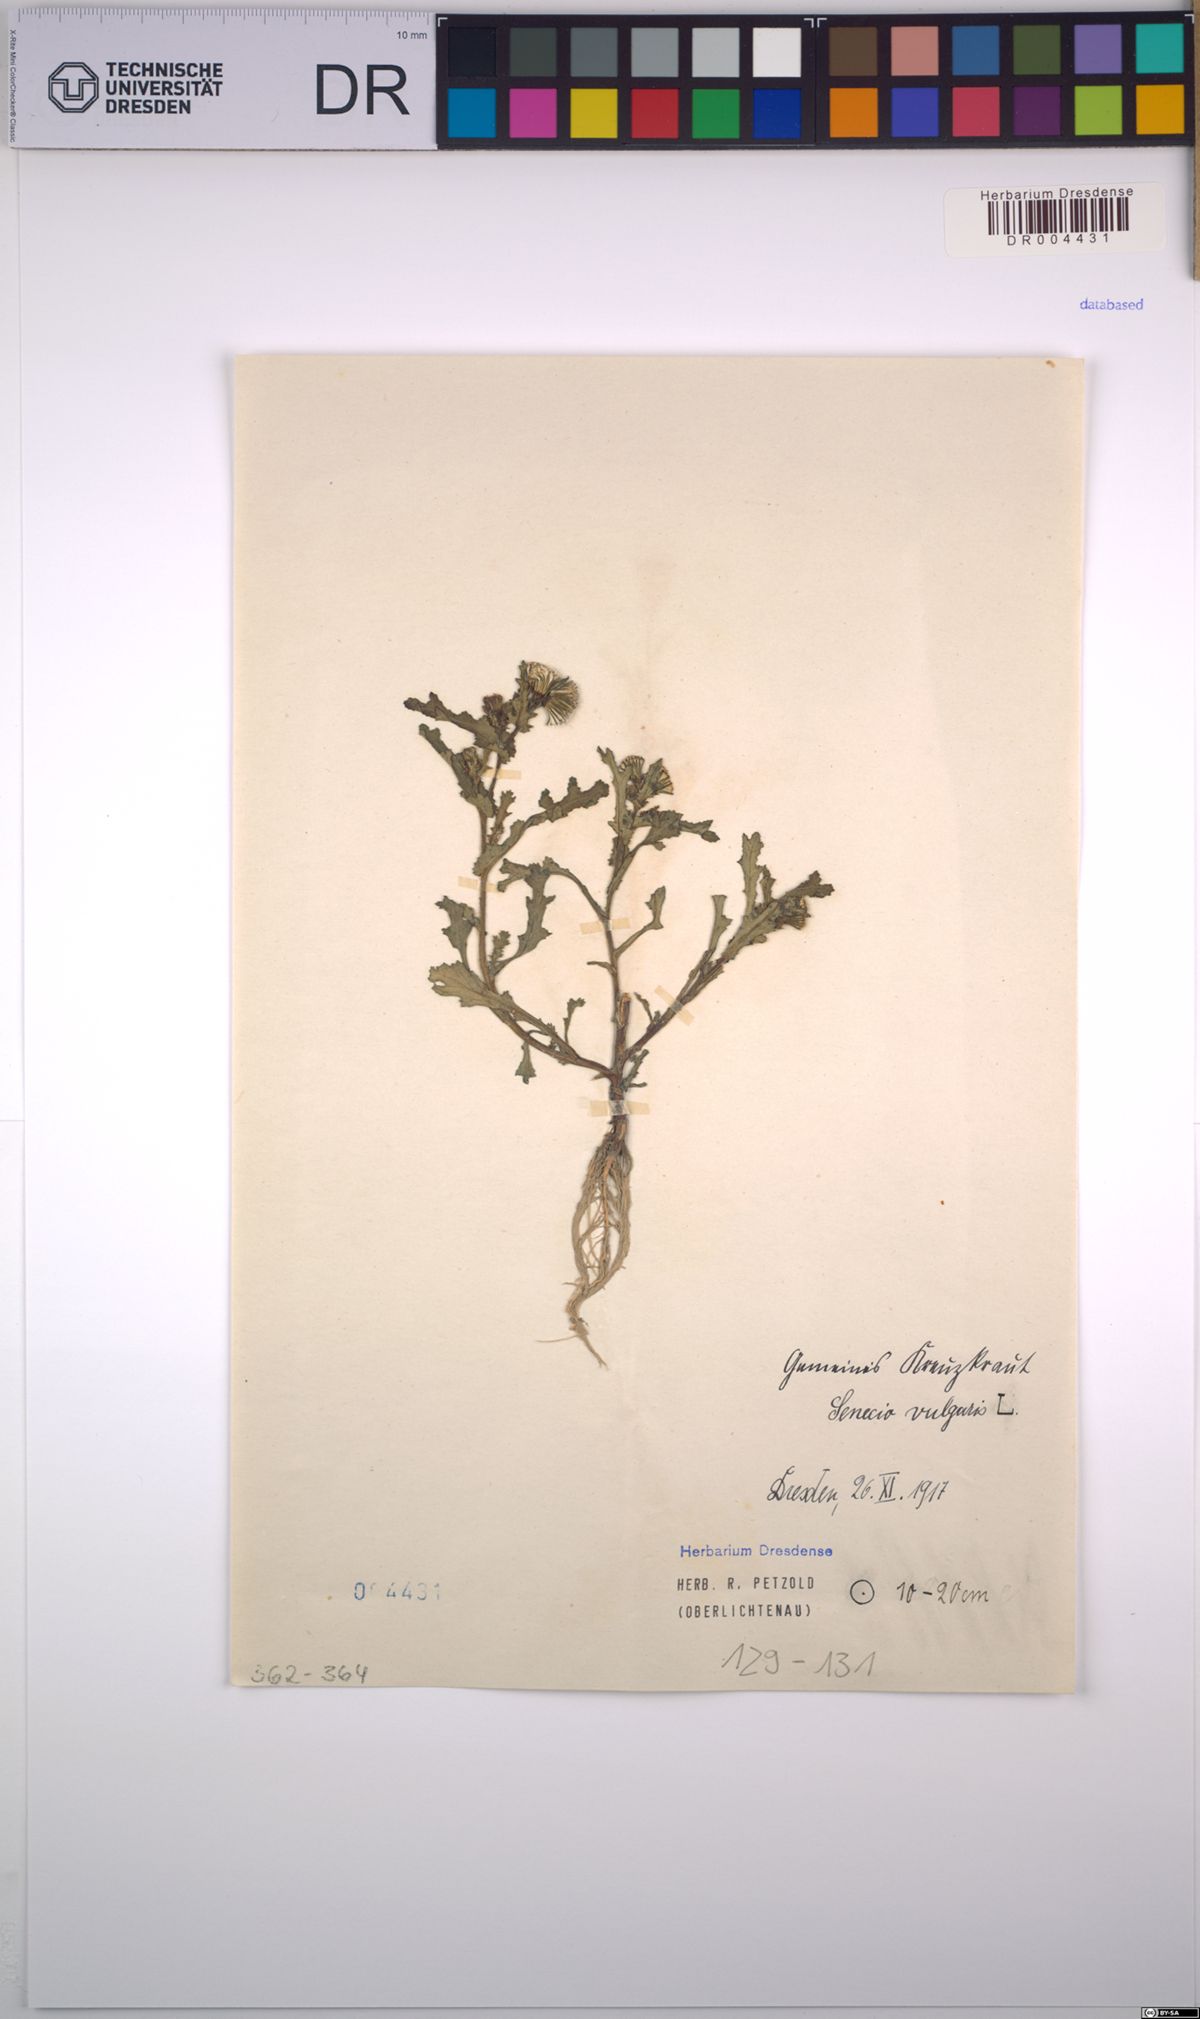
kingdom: Plantae
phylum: Tracheophyta
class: Magnoliopsida
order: Asterales
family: Asteraceae
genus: Senecio
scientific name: Senecio vulgaris
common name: Old-man-in-the-spring
